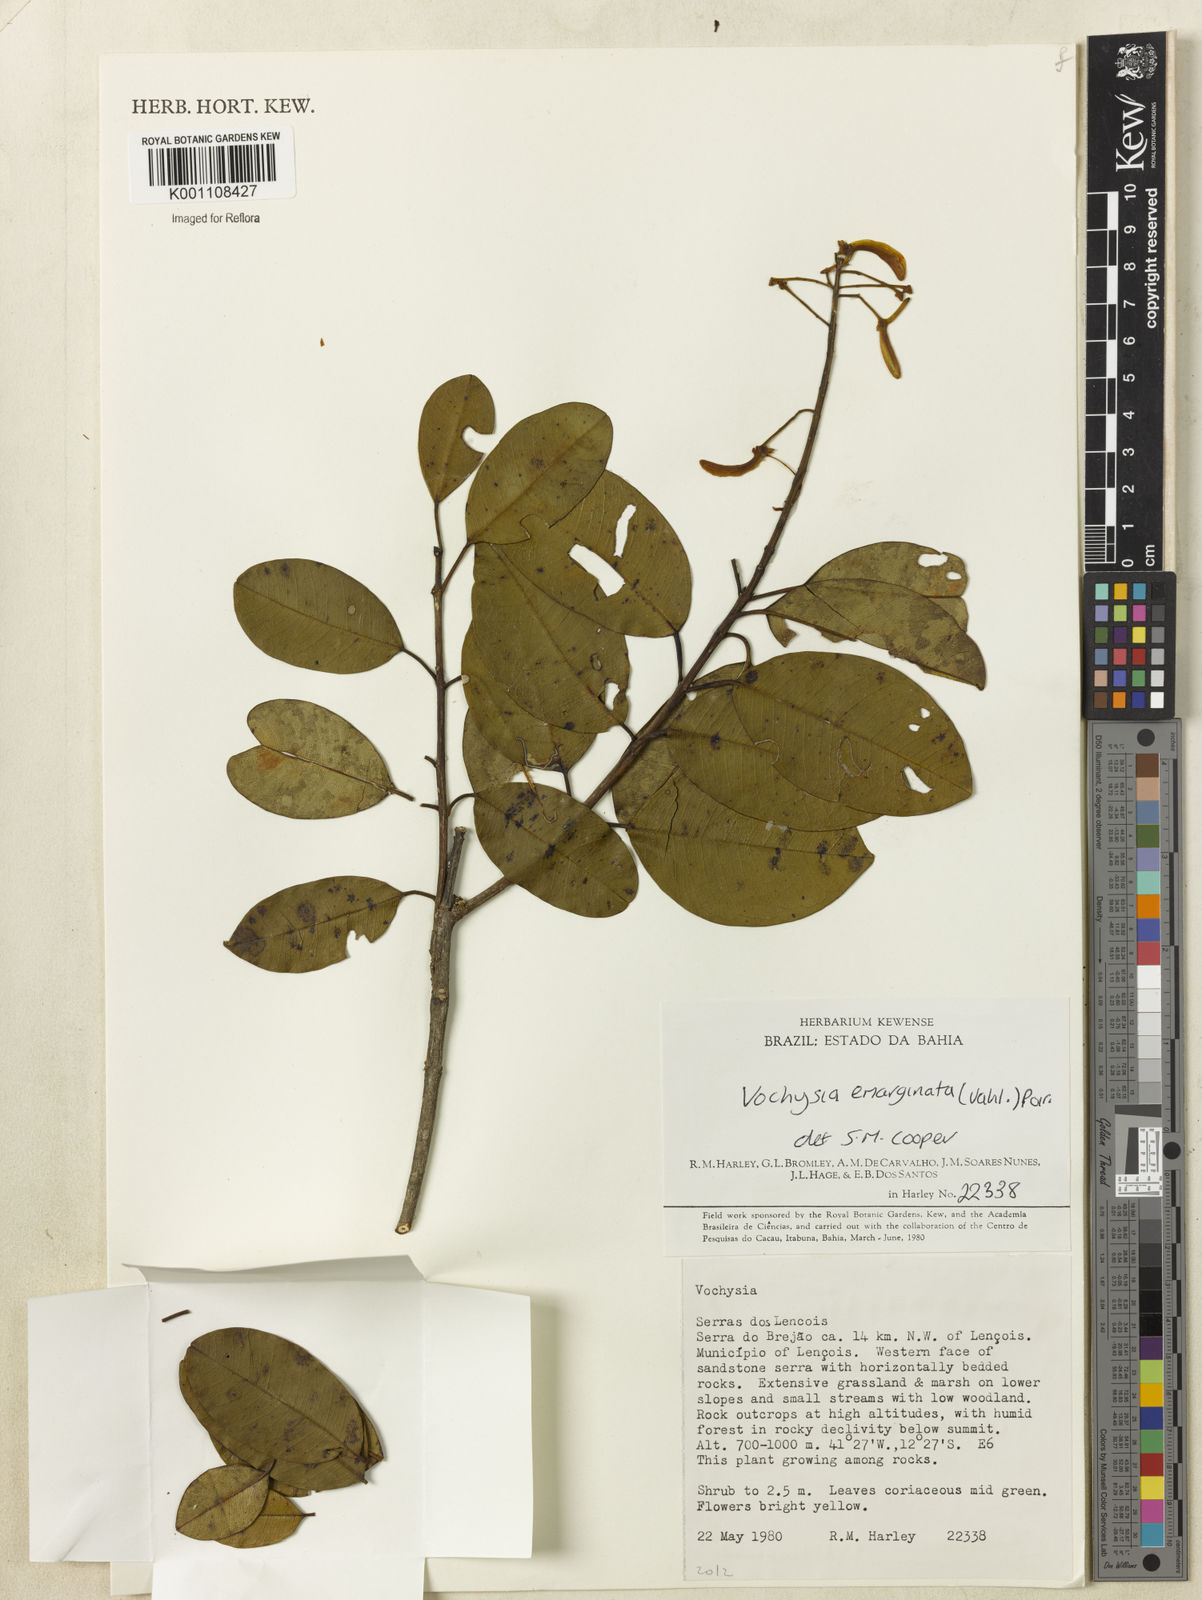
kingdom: Plantae
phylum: Tracheophyta
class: Magnoliopsida
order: Myrtales
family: Vochysiaceae
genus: Vochysia
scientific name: Vochysia
